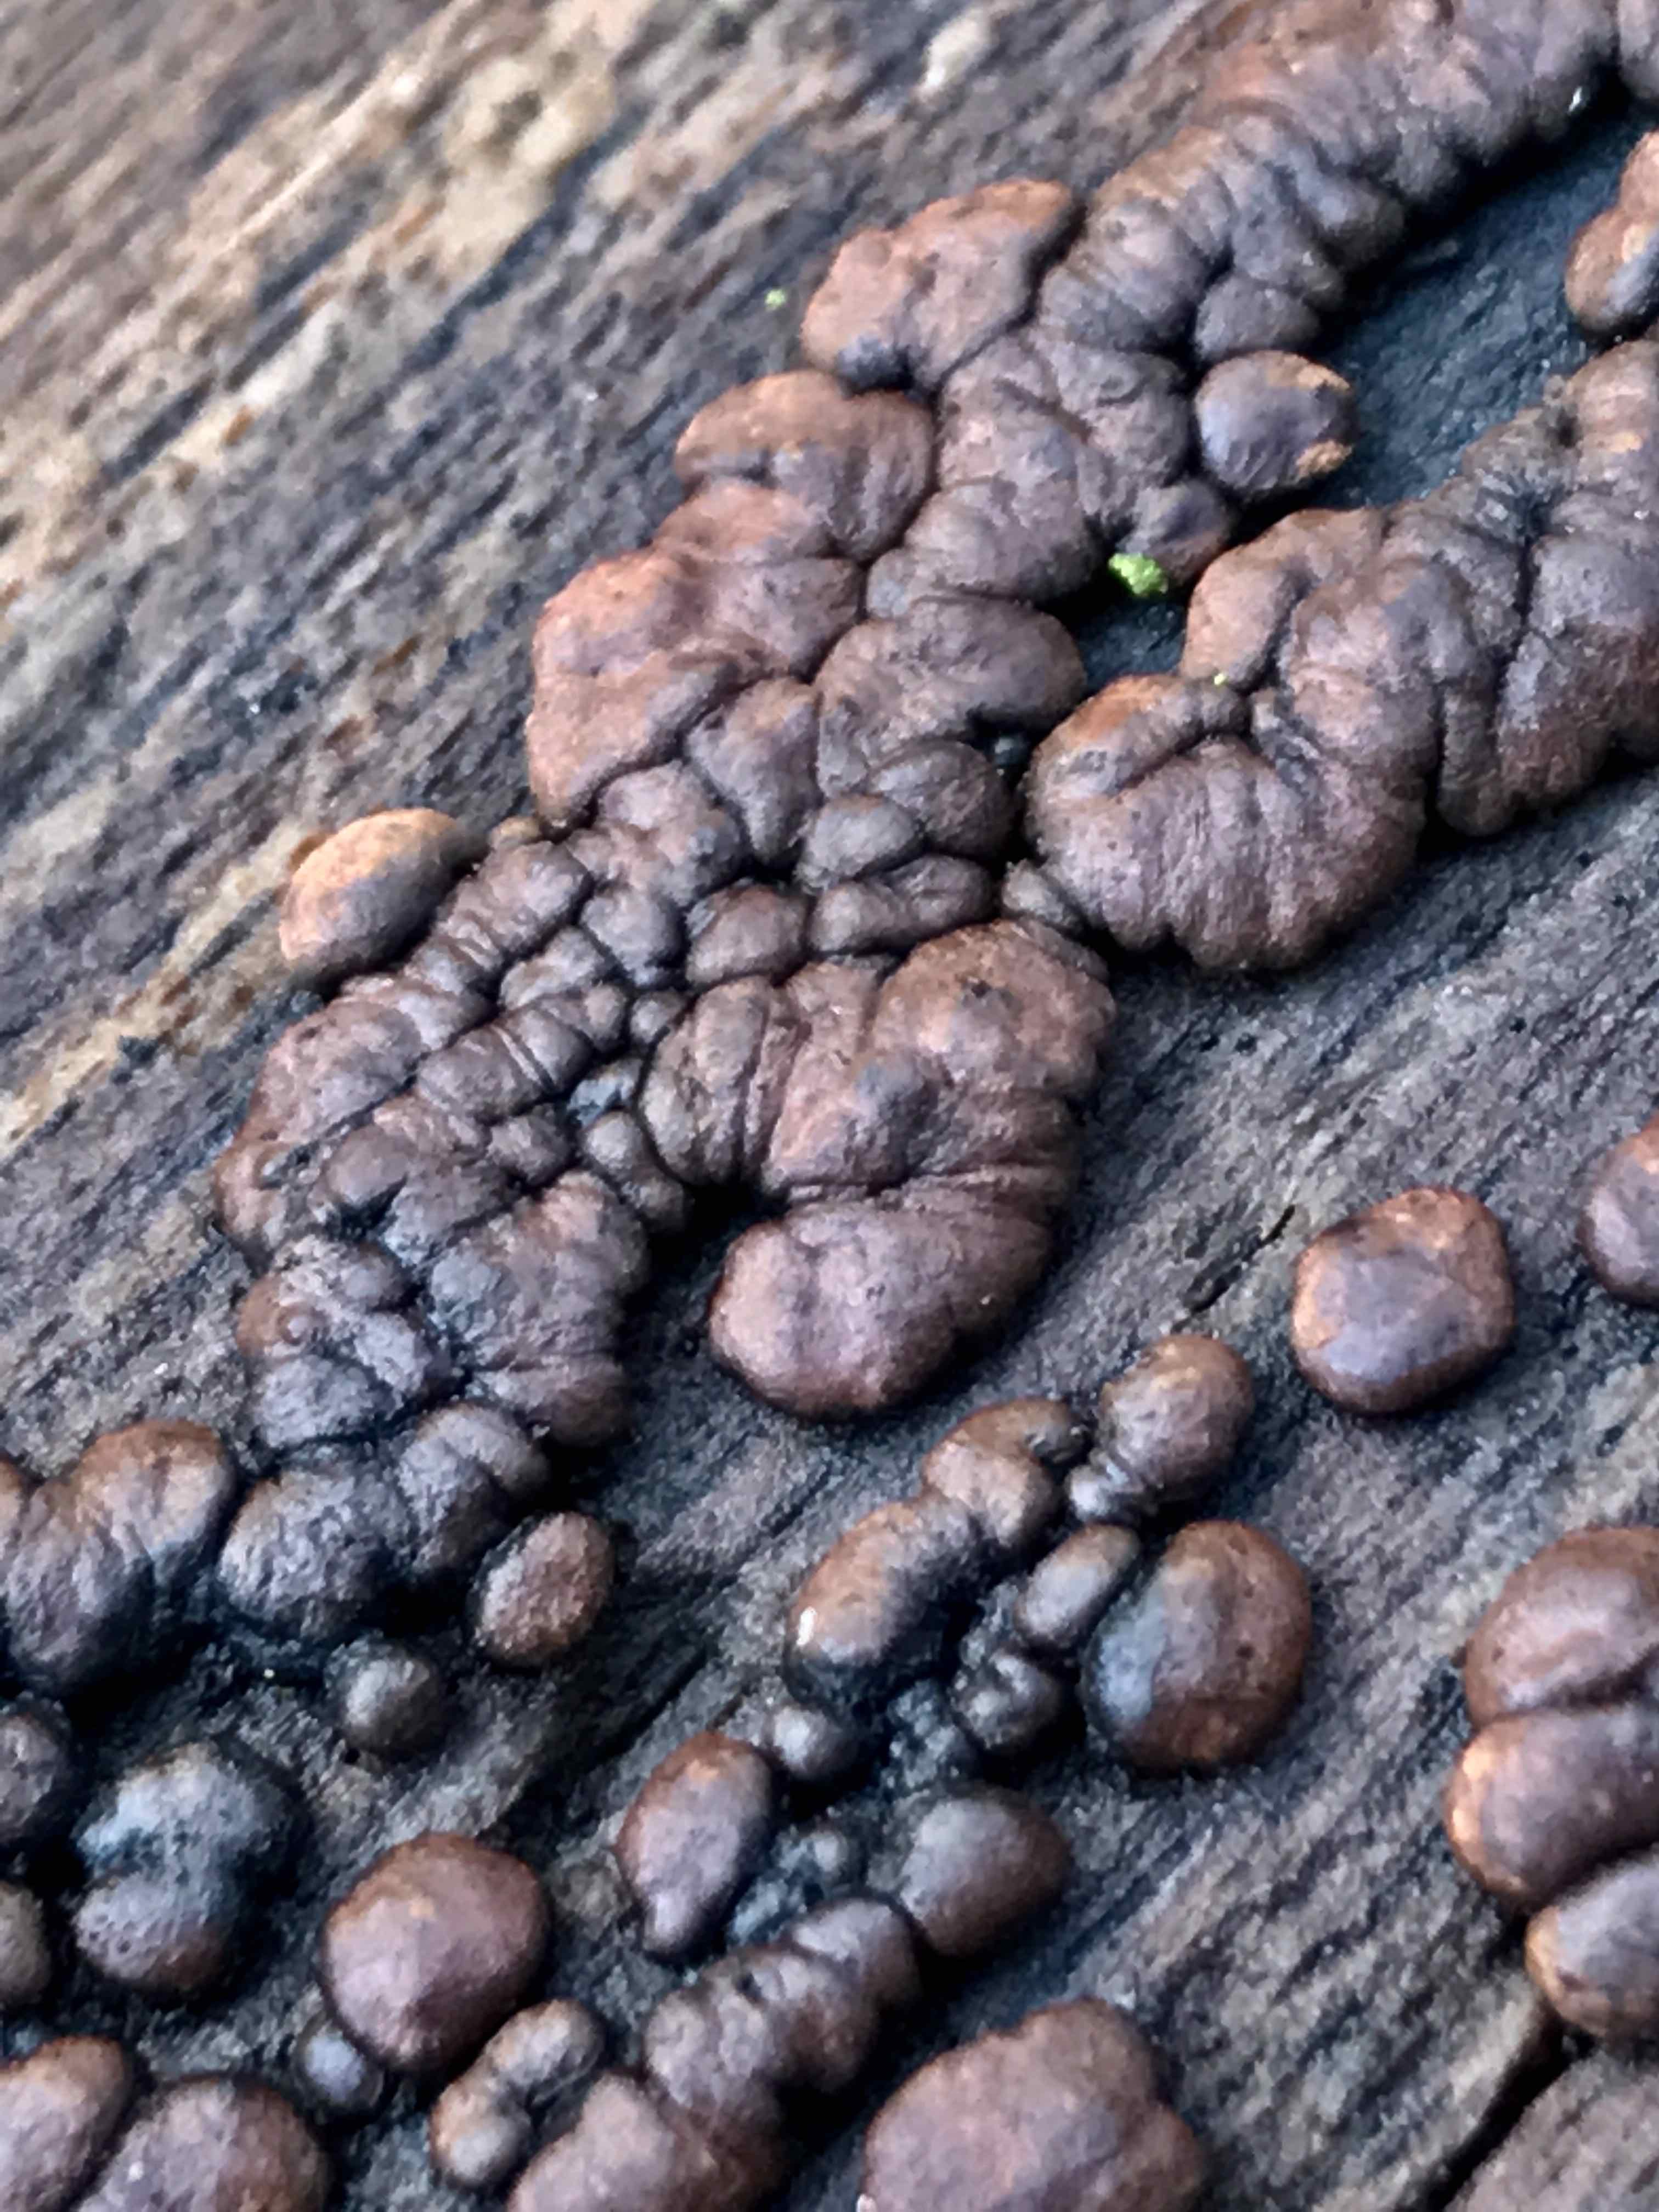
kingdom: Fungi
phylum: Ascomycota
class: Sordariomycetes
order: Xylariales
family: Hypoxylaceae
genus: Jackrogersella
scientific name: Jackrogersella cohaerens
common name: sammenflydende kulbær
